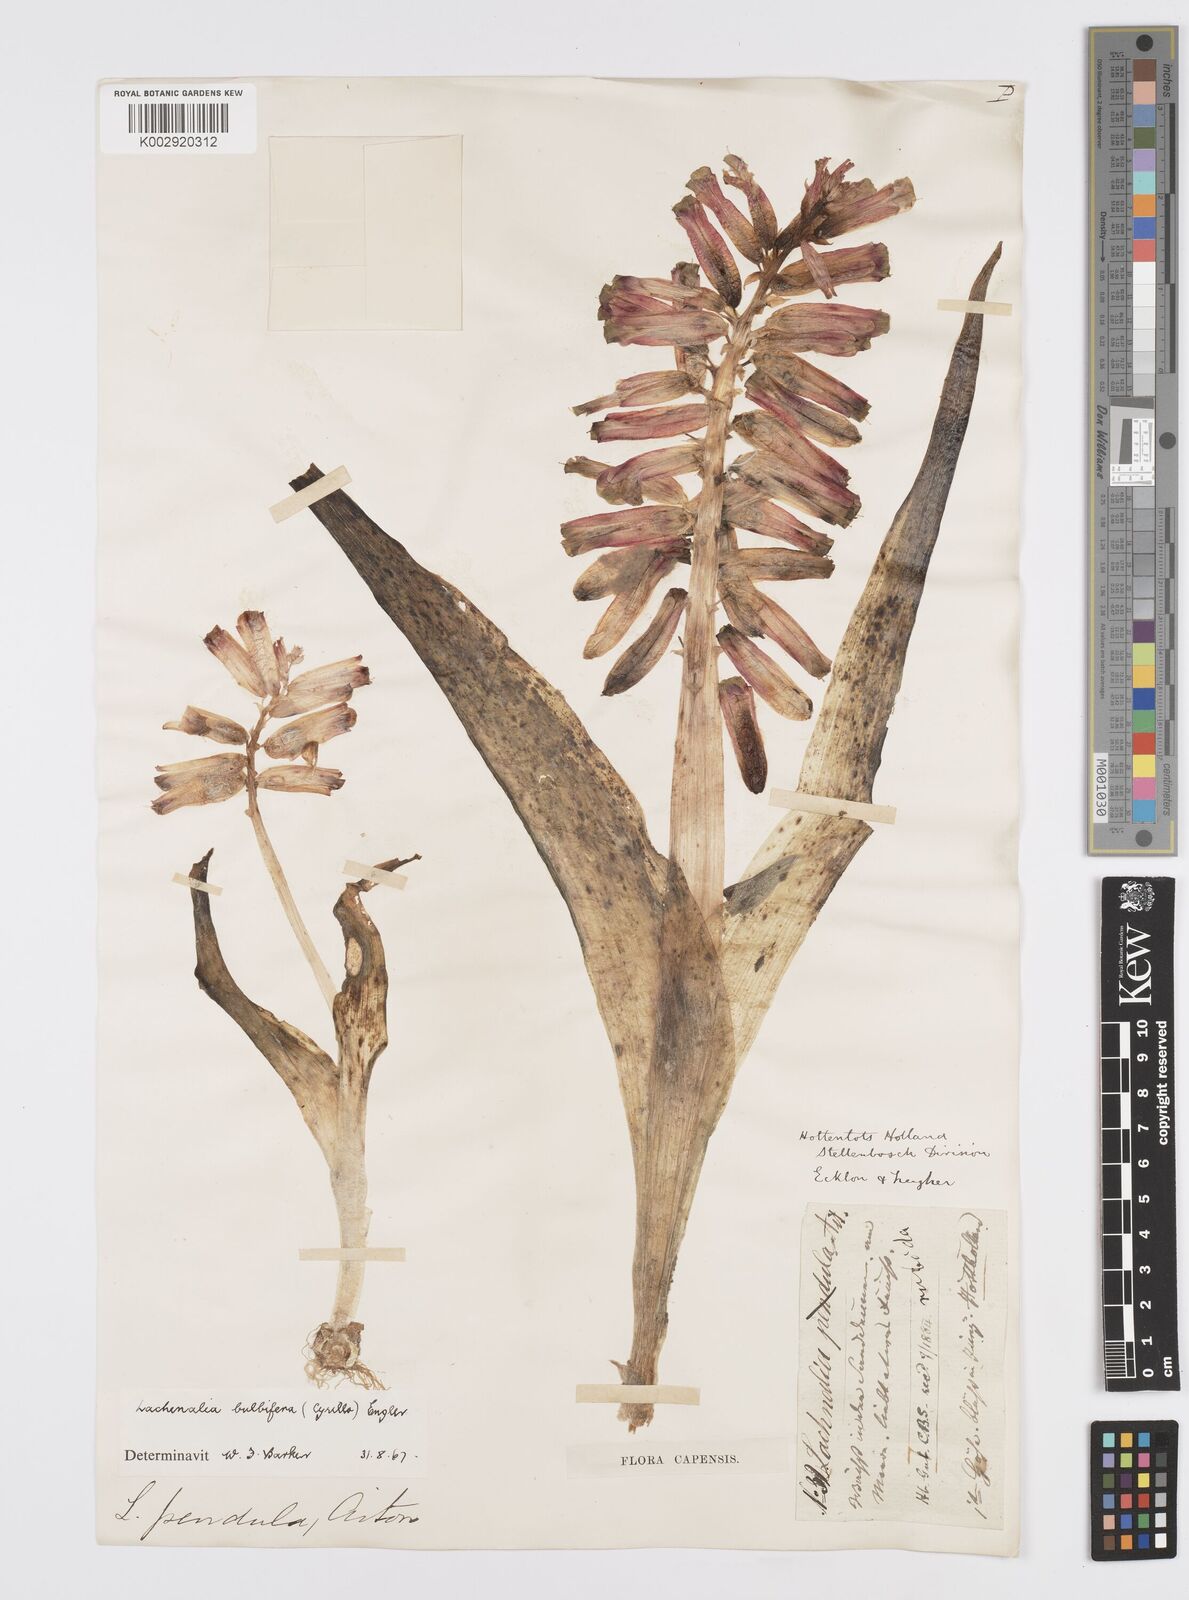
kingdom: Plantae
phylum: Tracheophyta
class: Liliopsida
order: Asparagales
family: Asparagaceae
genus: Lachenalia
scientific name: Lachenalia bulbifera
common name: Red lachenalia
